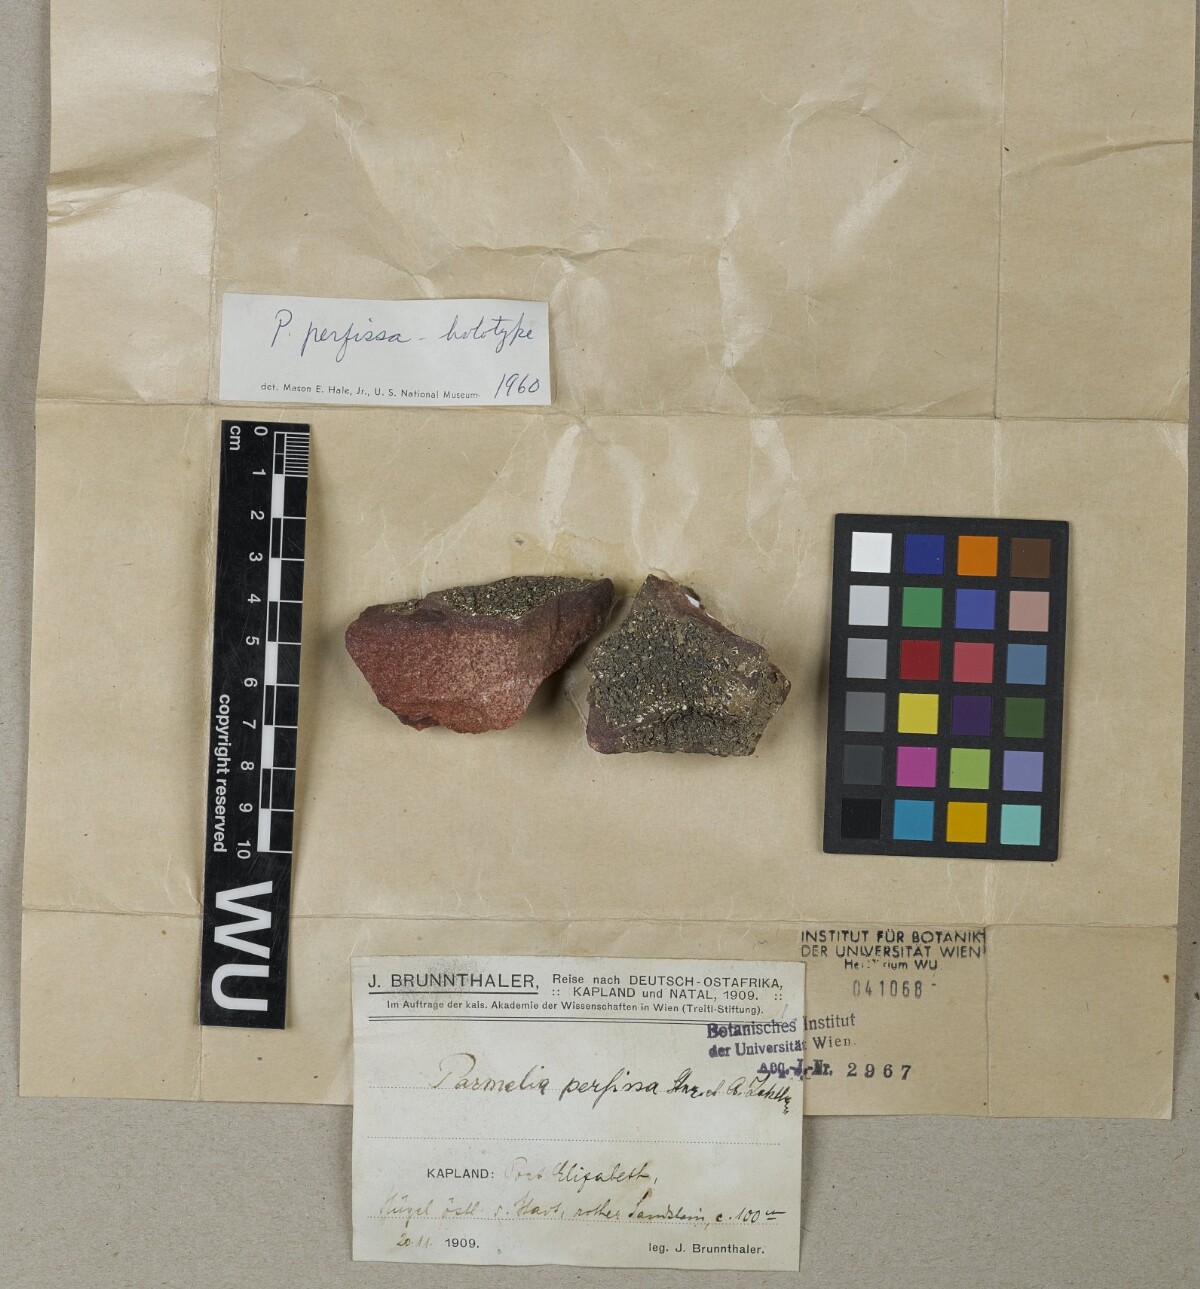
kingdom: Fungi
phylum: Ascomycota
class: Lecanoromycetes
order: Lecanorales
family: Parmeliaceae
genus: Xanthoparmelia
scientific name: Xanthoparmelia perfissa
